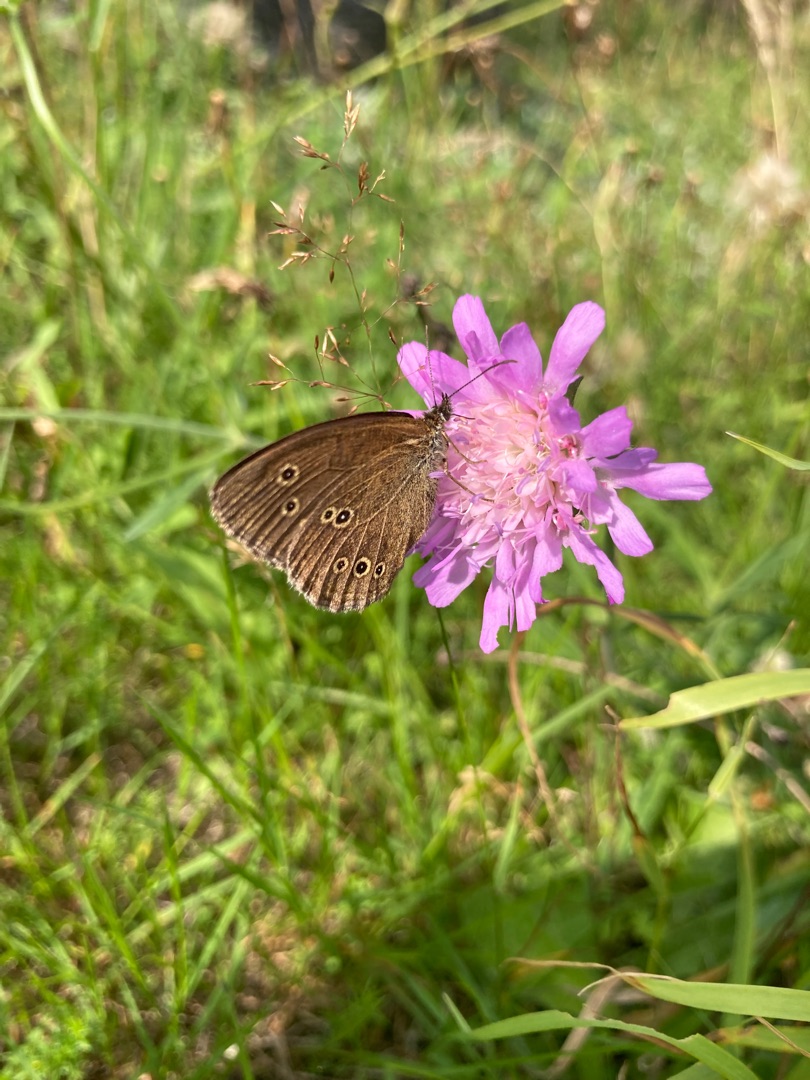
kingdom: Animalia
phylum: Arthropoda
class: Insecta
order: Lepidoptera
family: Nymphalidae
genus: Aphantopus
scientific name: Aphantopus hyperantus
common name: Engrandøje
